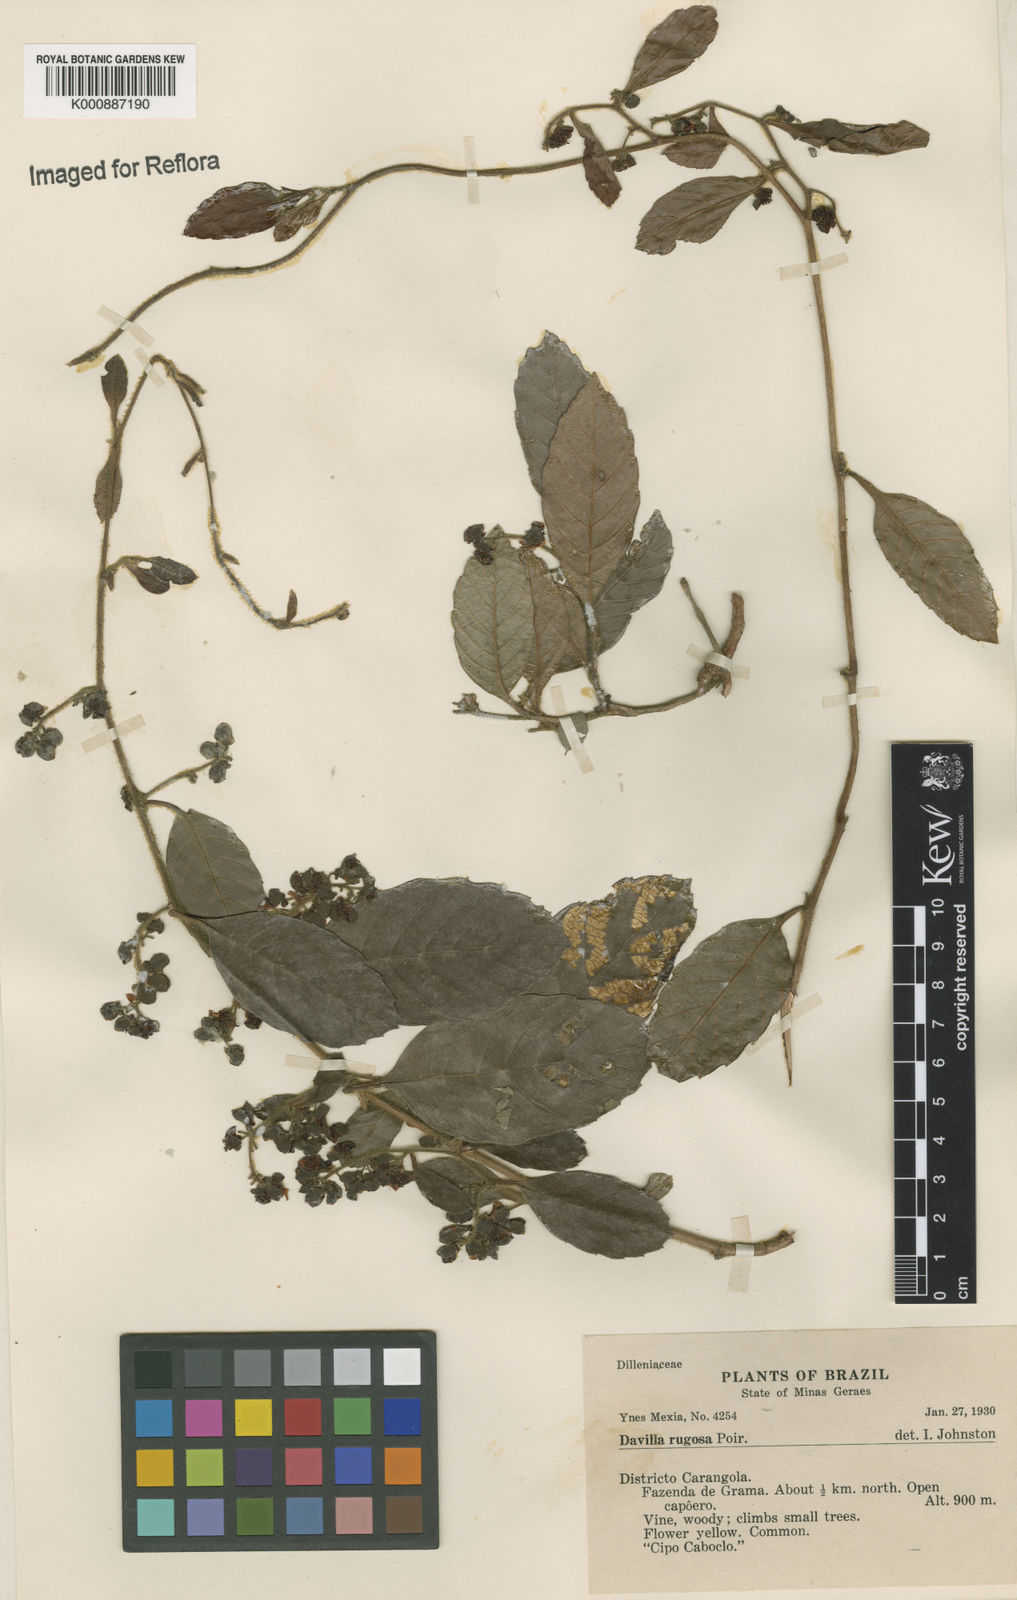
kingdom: Plantae
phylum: Tracheophyta
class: Magnoliopsida
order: Dilleniales
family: Dilleniaceae
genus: Davilla
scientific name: Davilla rugosa
